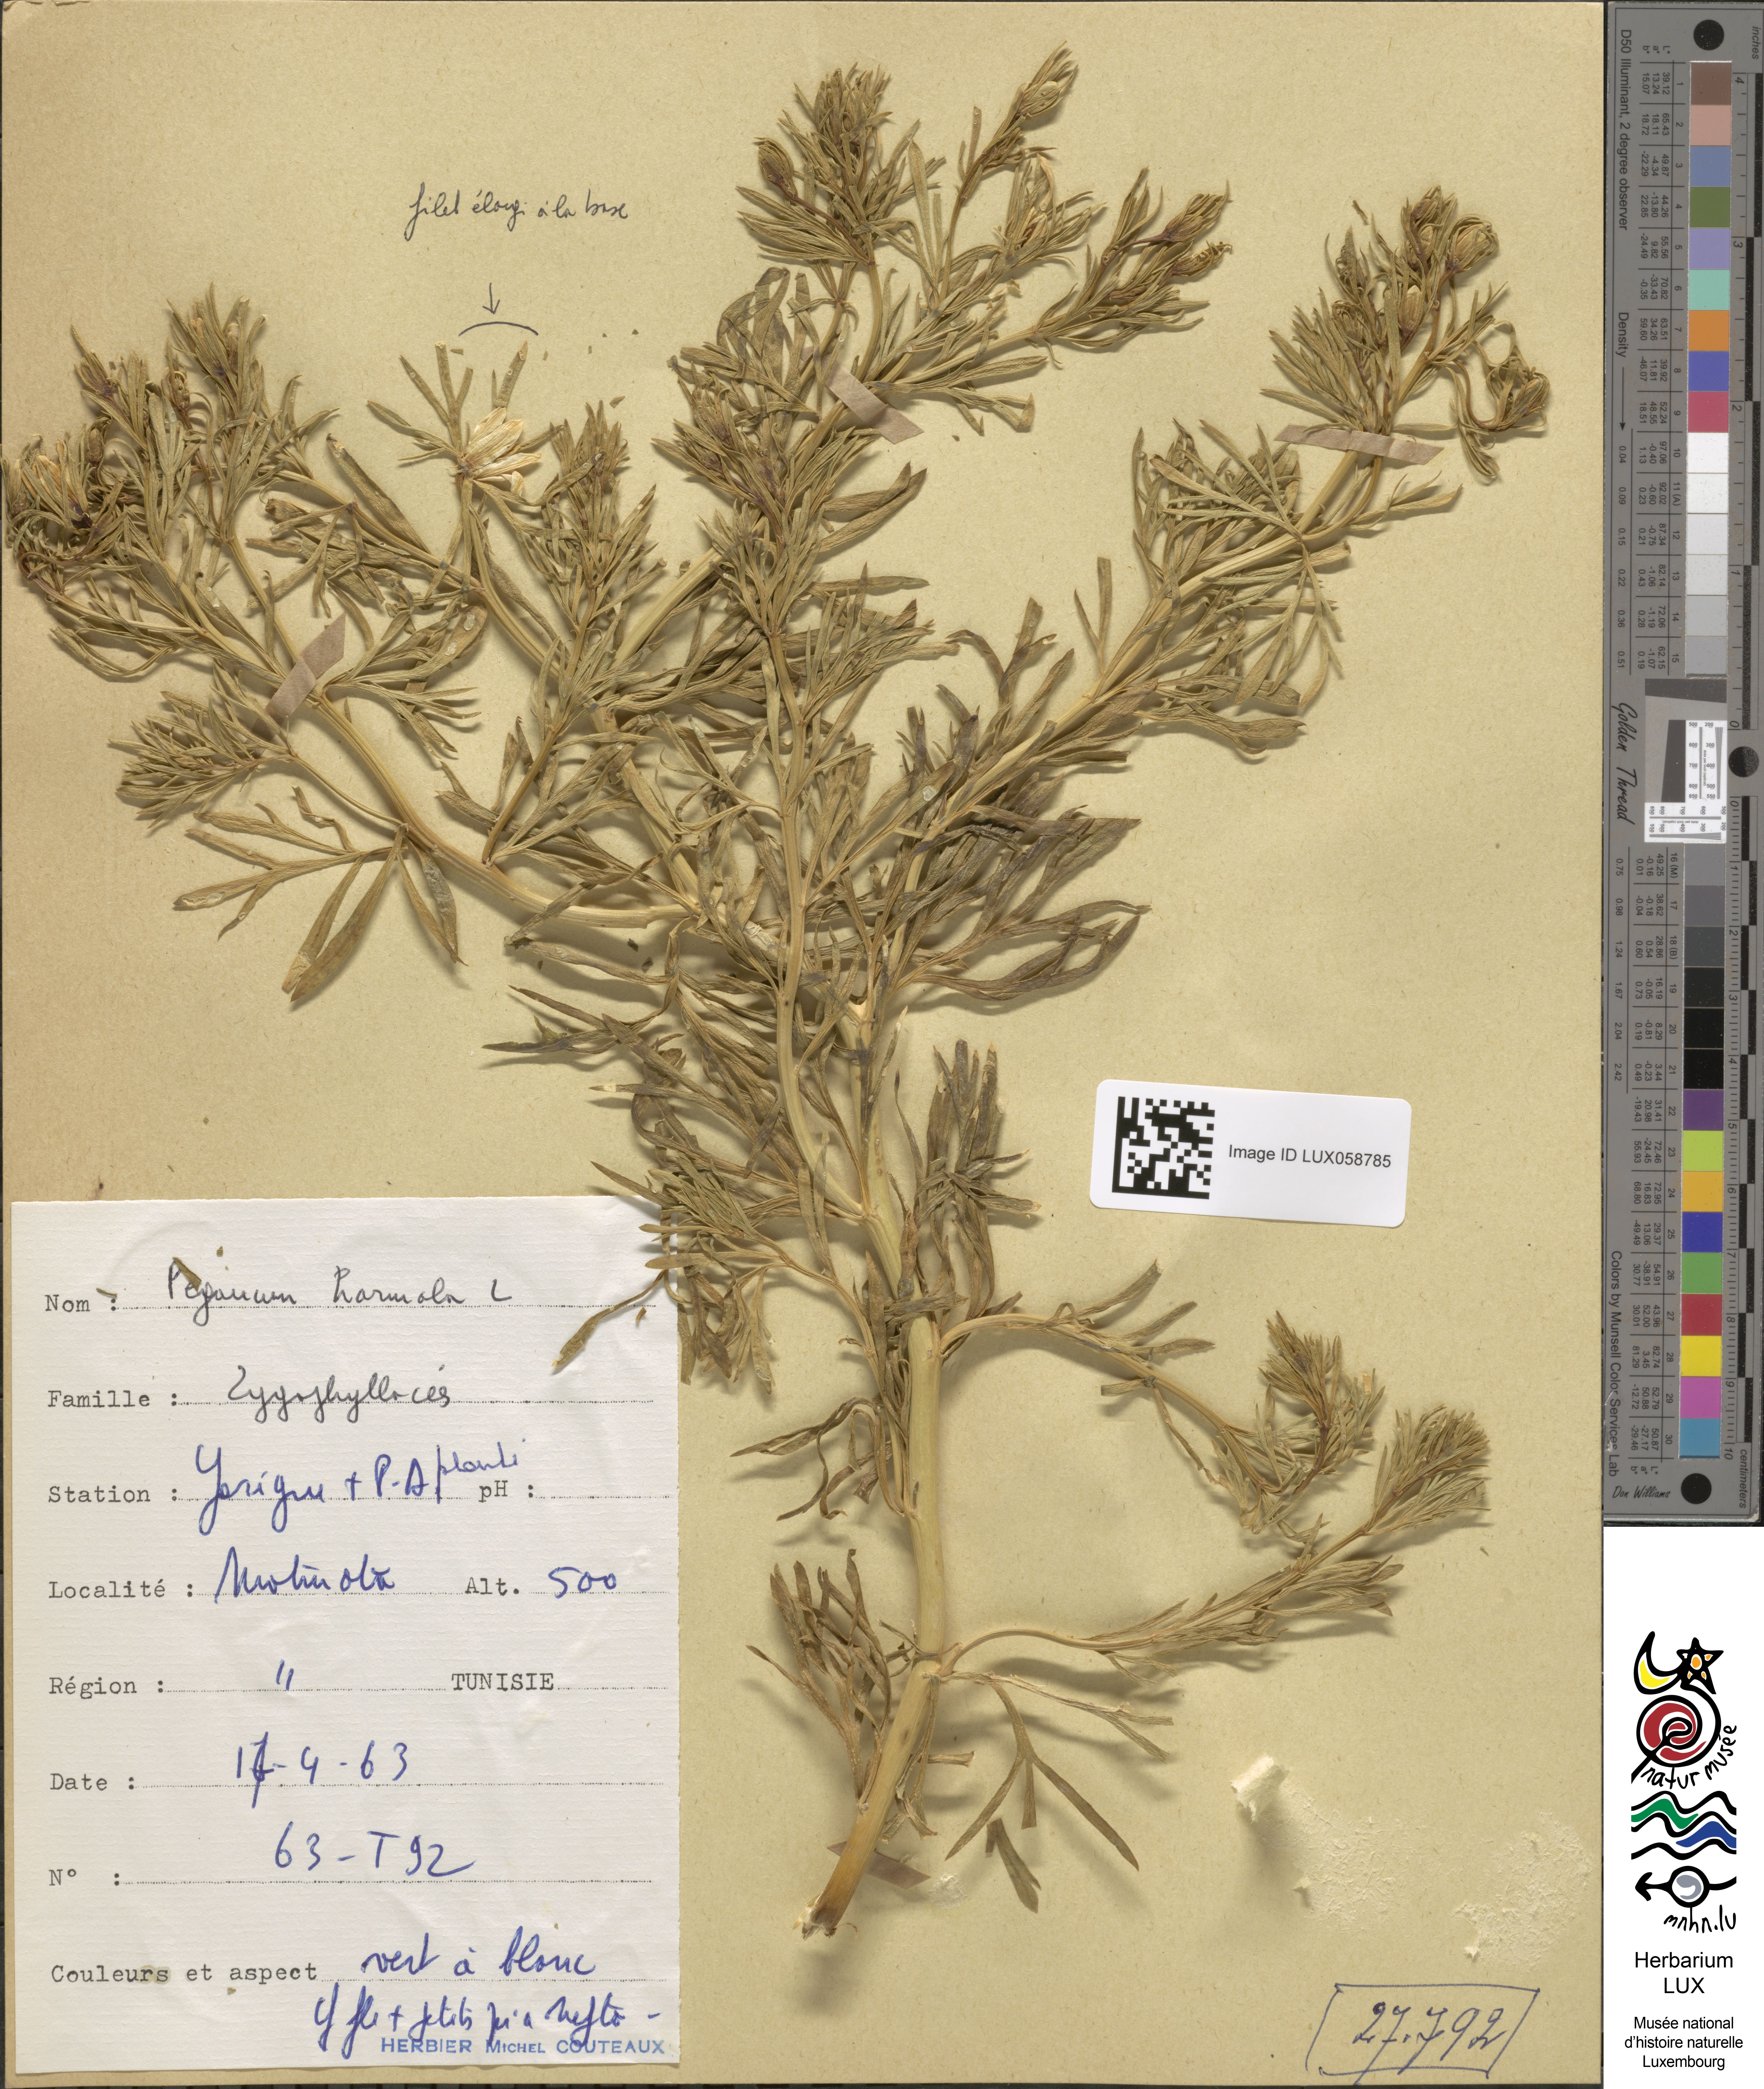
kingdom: Plantae
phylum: Tracheophyta
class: Magnoliopsida
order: Sapindales
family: Tetradiclidaceae
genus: Peganum
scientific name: Peganum harmala
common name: Harmal peganum
